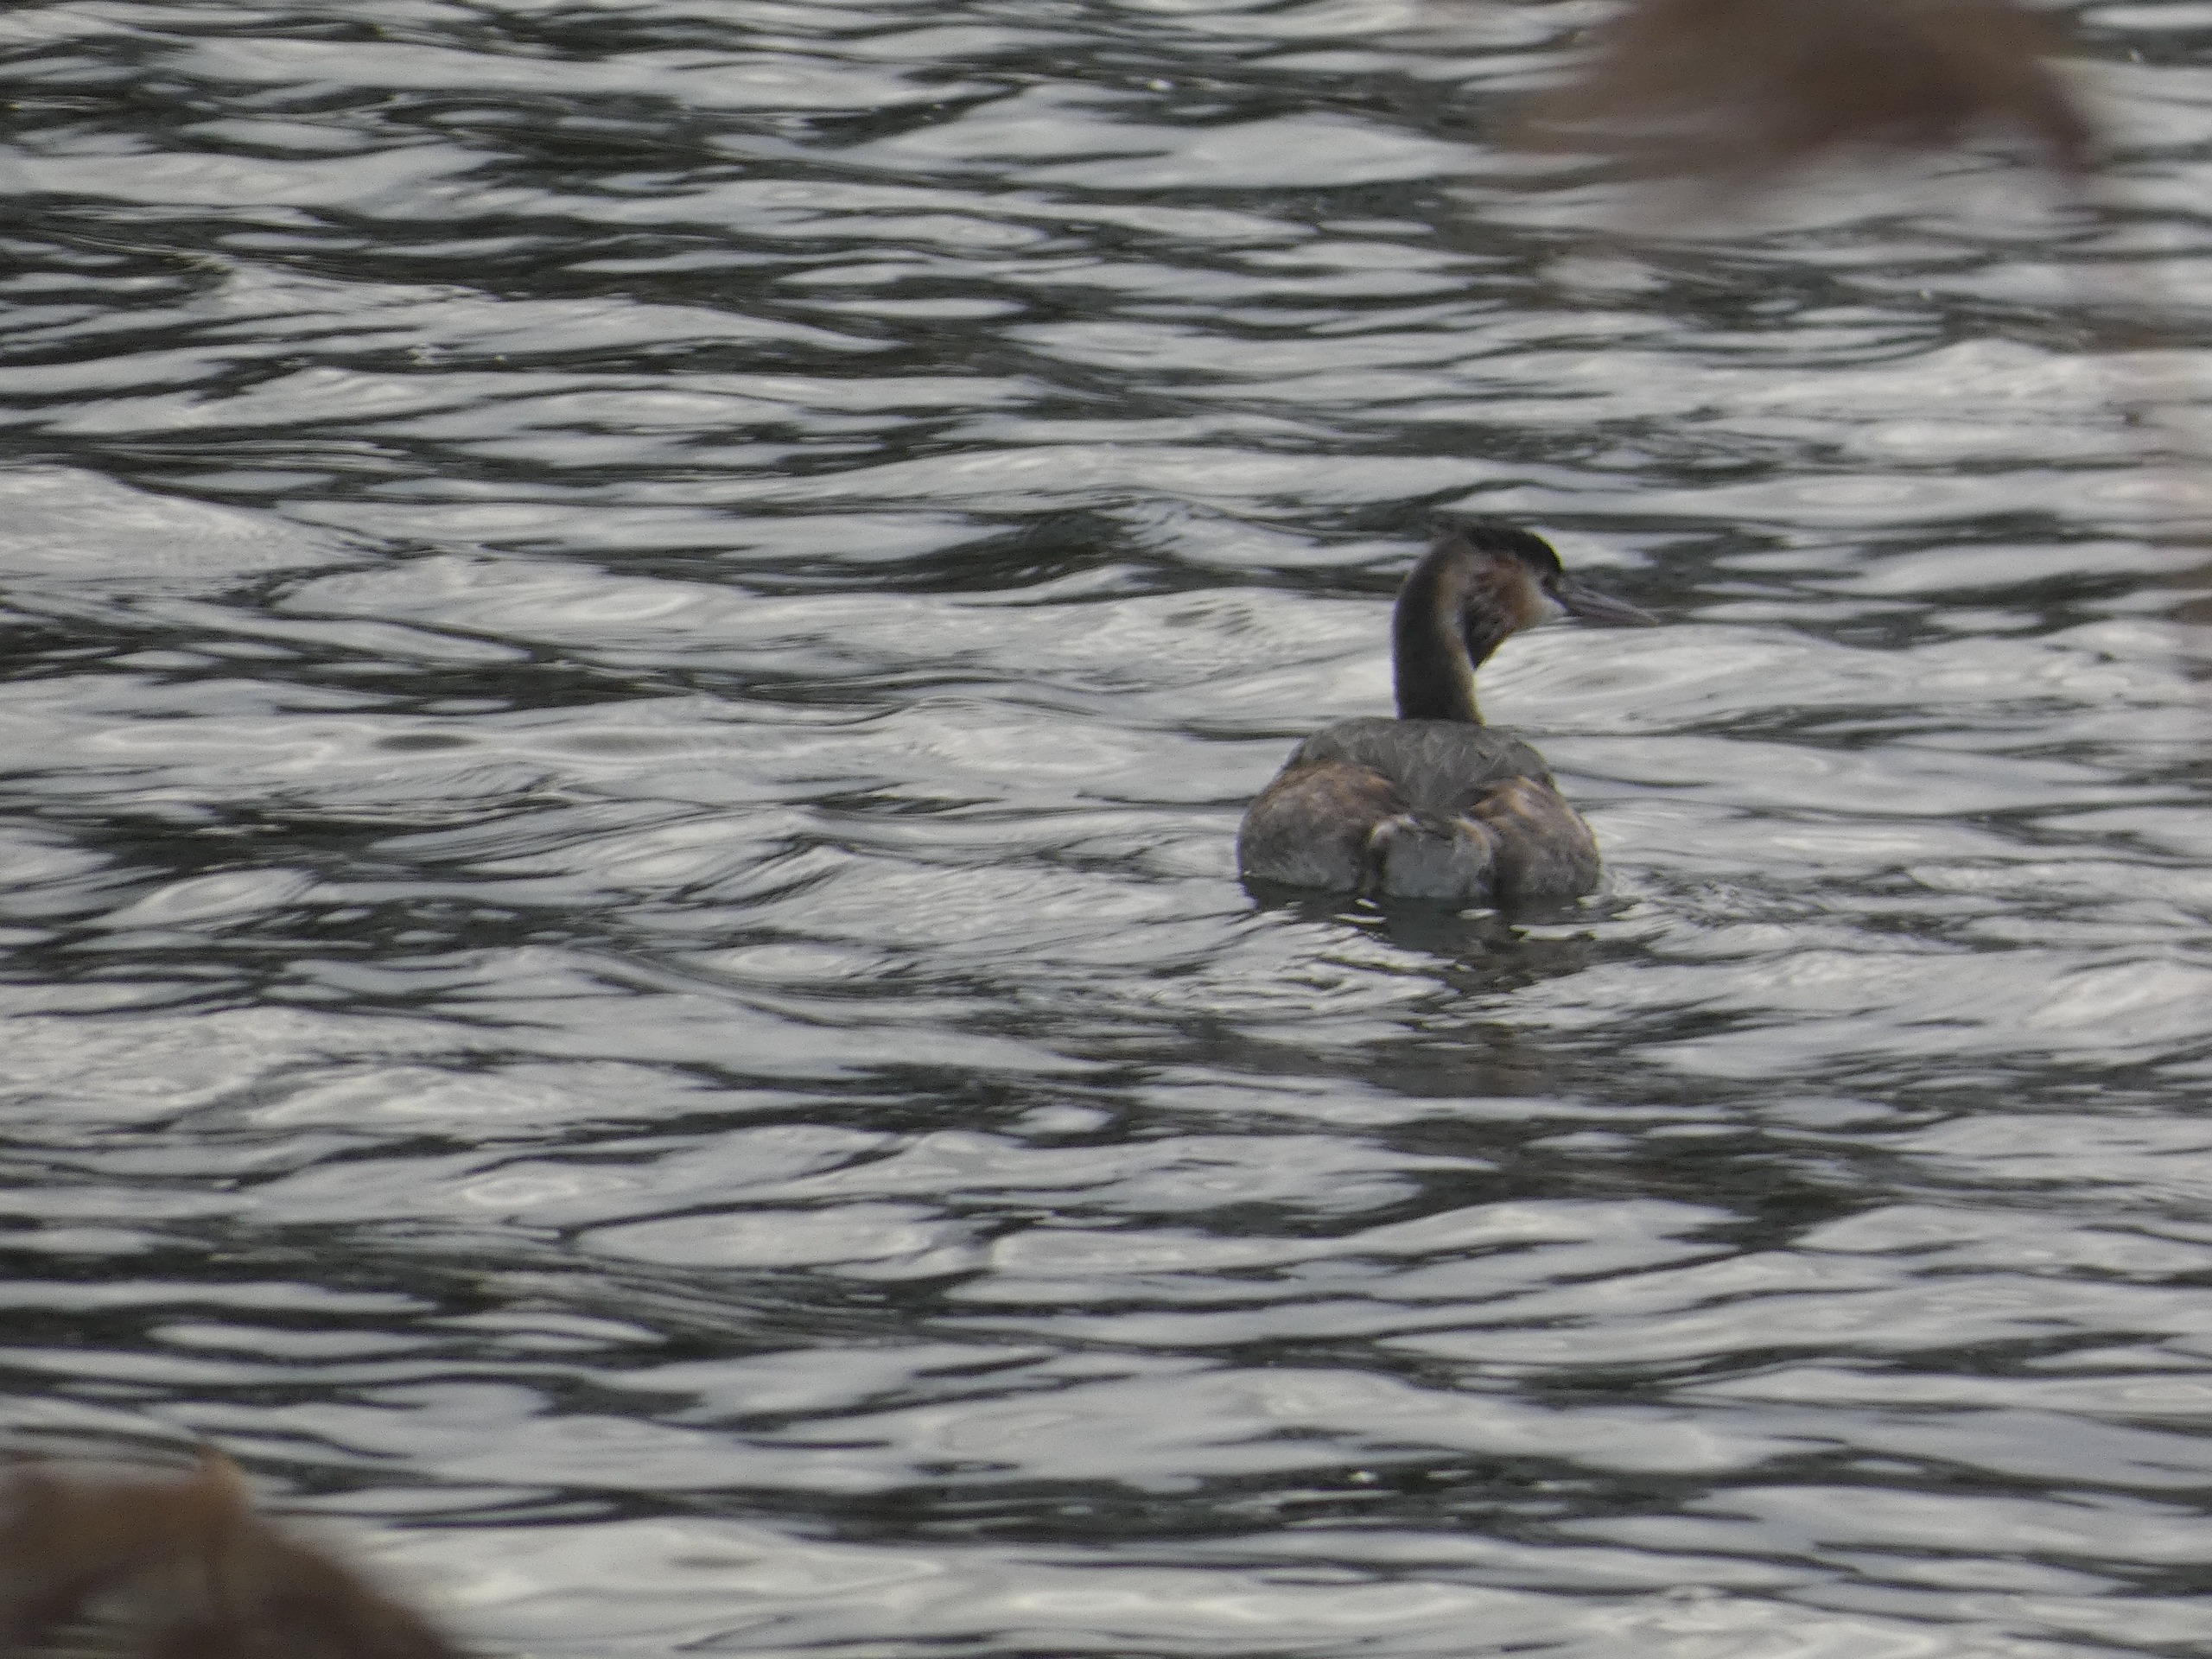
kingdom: Animalia
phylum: Chordata
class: Aves
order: Podicipediformes
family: Podicipedidae
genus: Podiceps
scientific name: Podiceps cristatus
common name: Toppet lappedykker
